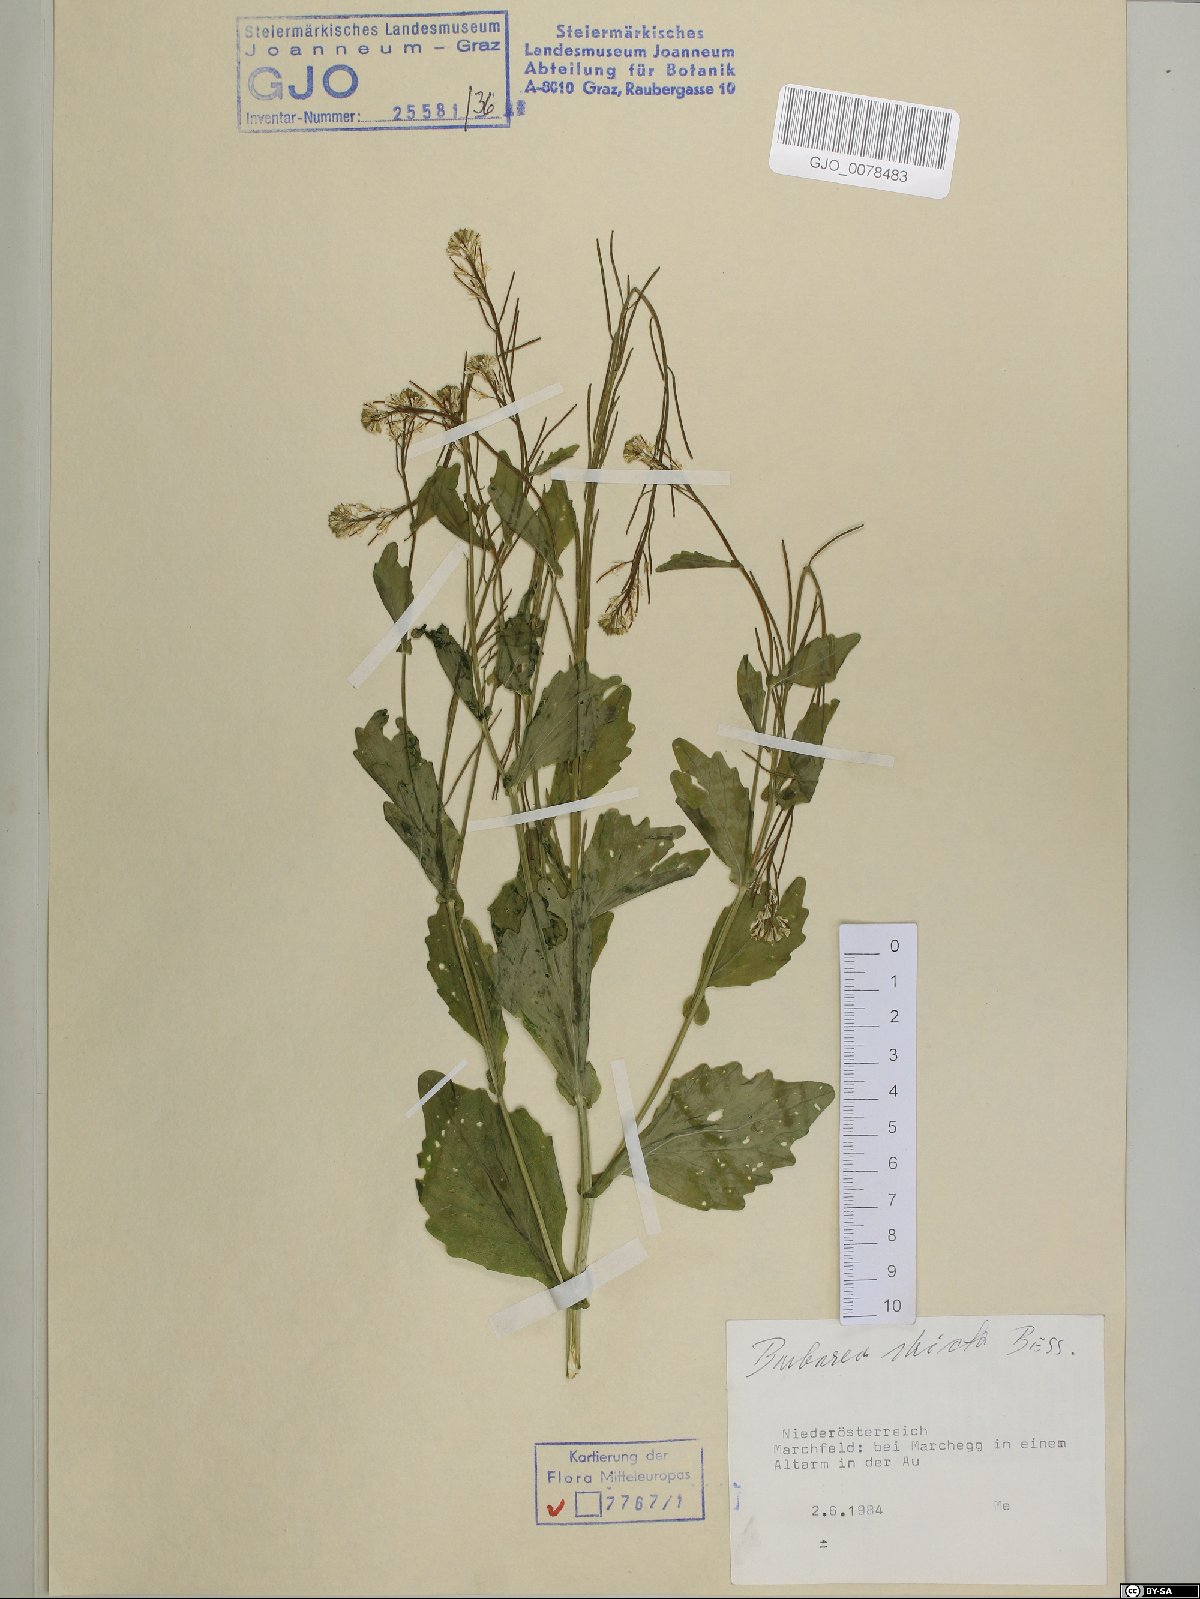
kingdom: Plantae
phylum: Tracheophyta
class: Magnoliopsida
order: Brassicales
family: Brassicaceae
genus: Barbarea
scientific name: Barbarea stricta
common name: Small-flowered winter-cress
